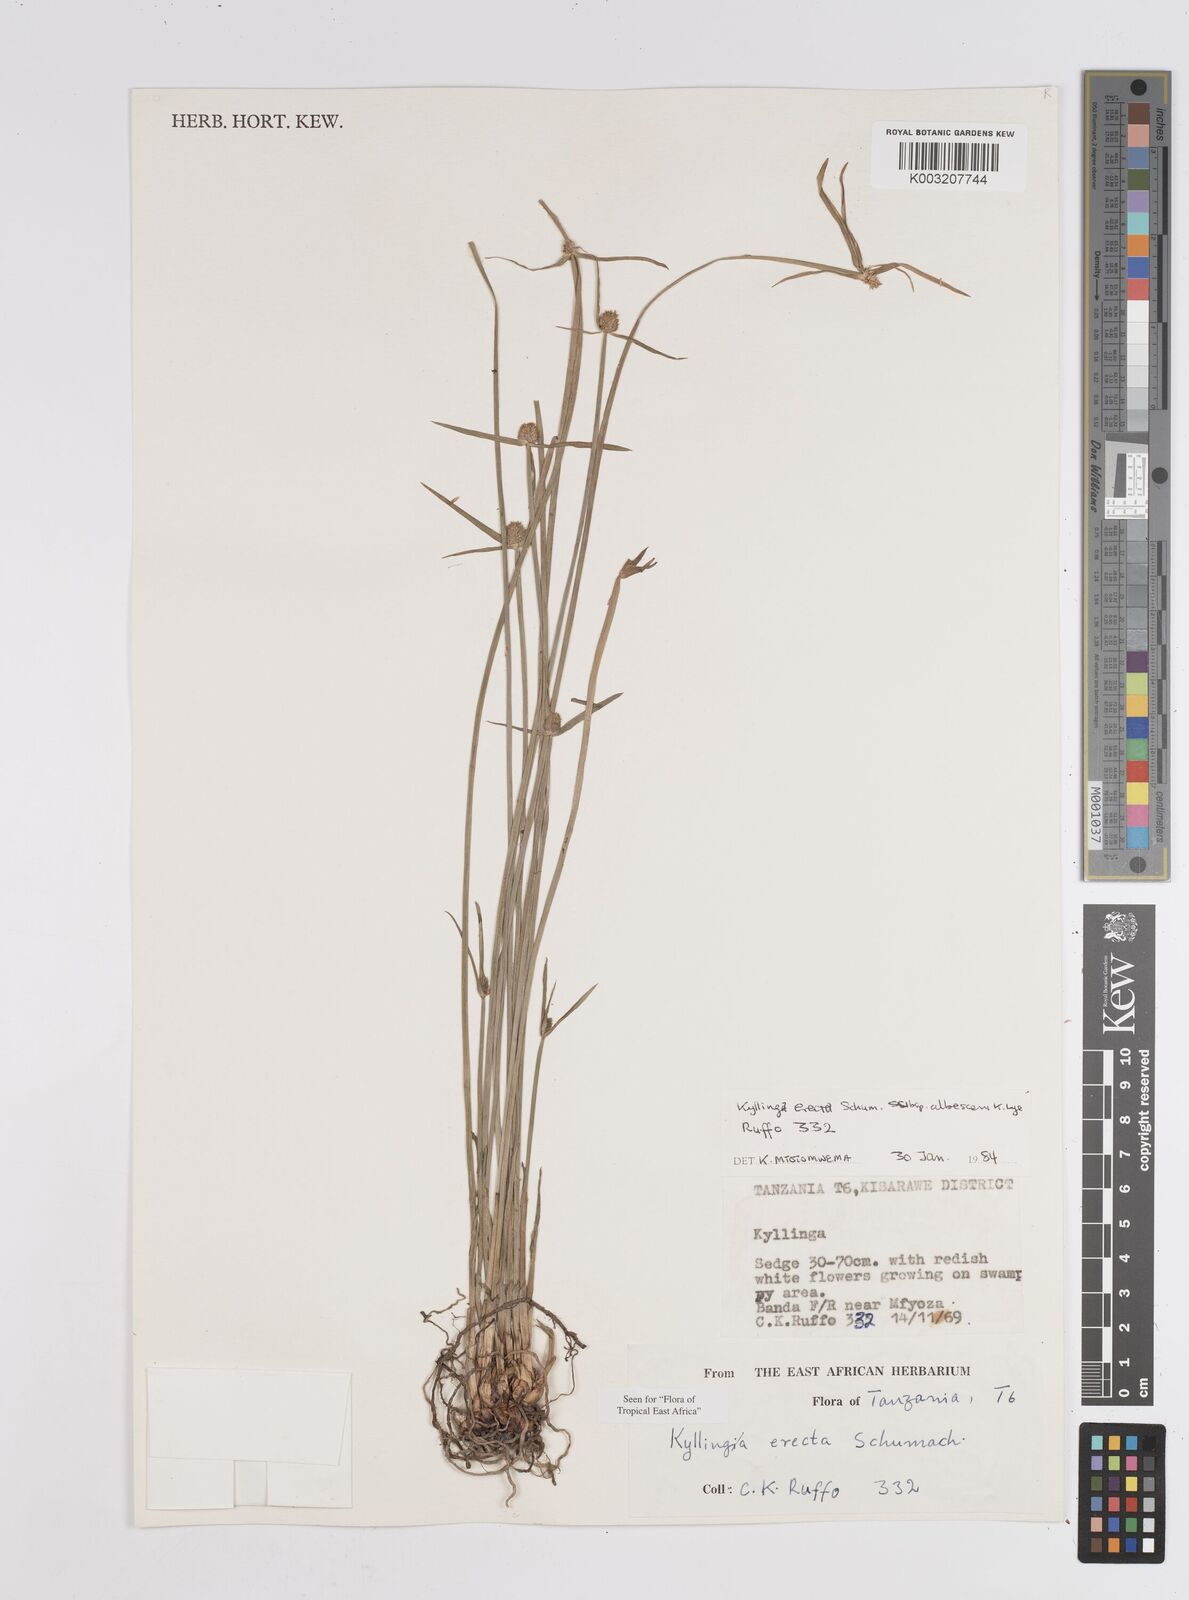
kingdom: Plantae
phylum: Tracheophyta
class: Liliopsida
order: Poales
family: Cyperaceae
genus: Cyperus
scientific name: Cyperus erectus
